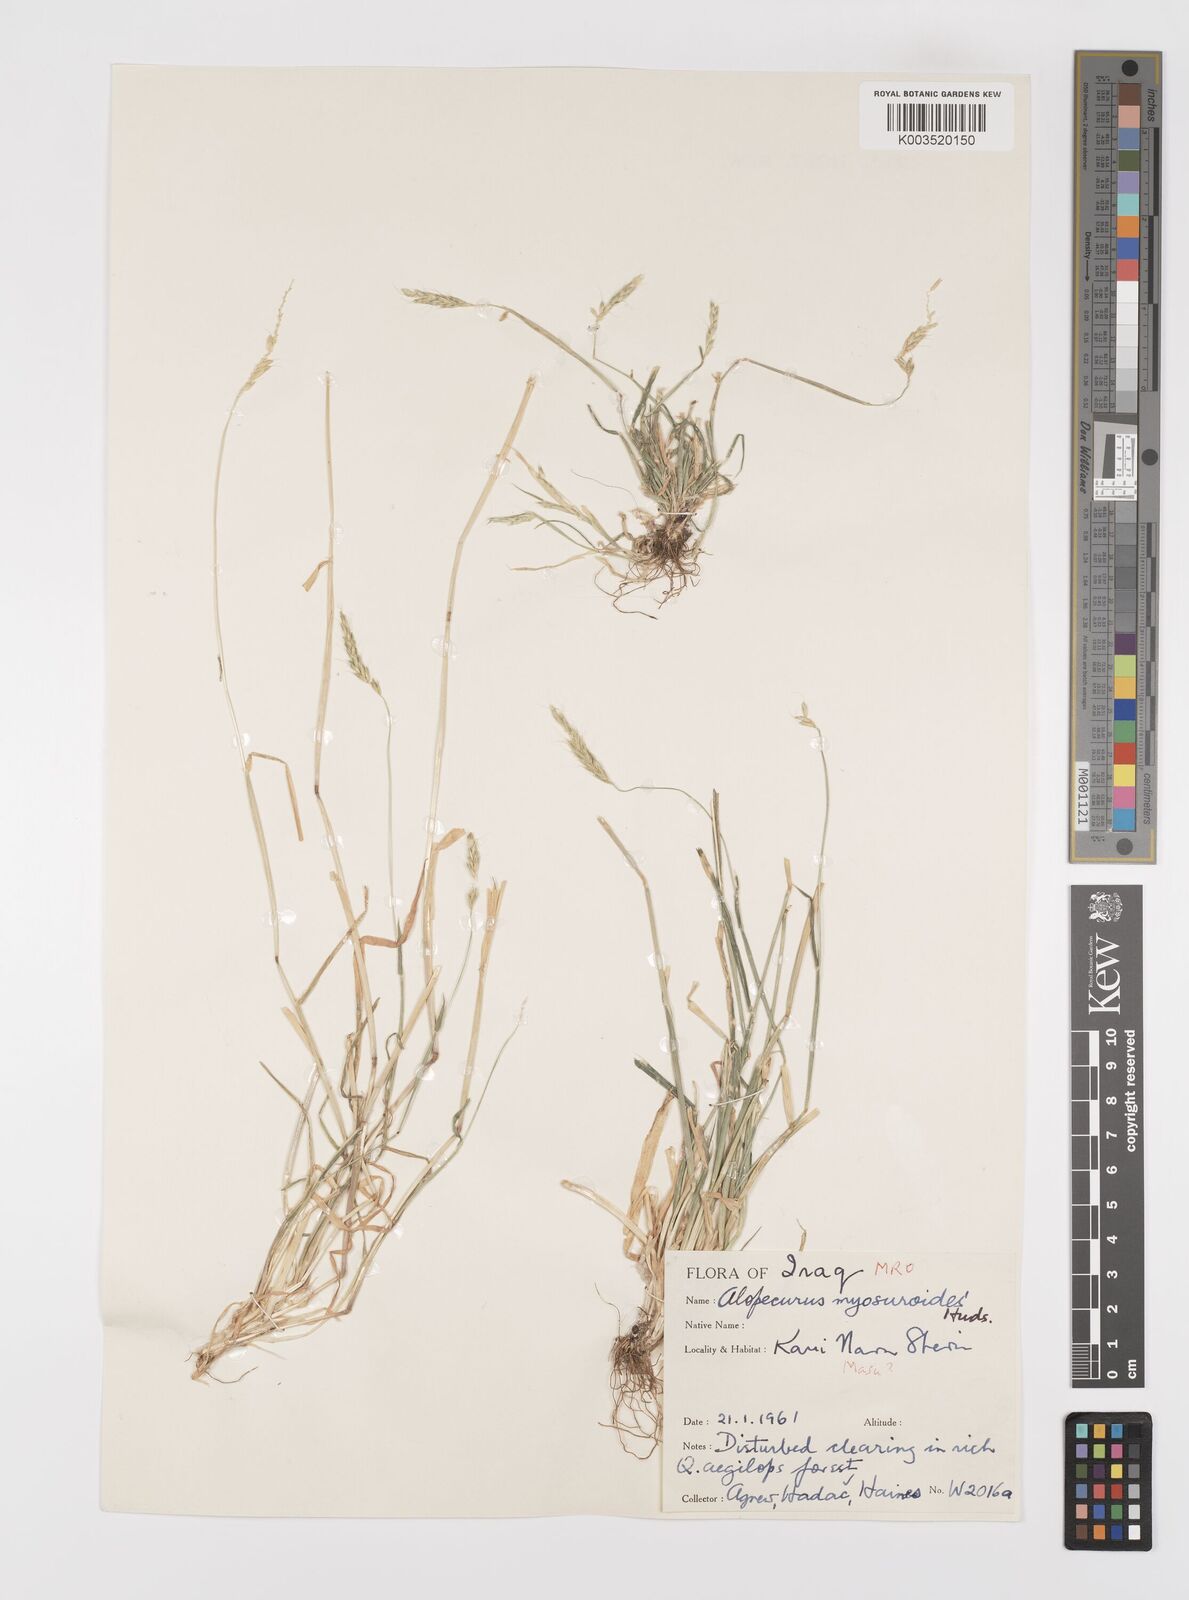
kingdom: Plantae
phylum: Tracheophyta
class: Liliopsida
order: Poales
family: Poaceae
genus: Alopecurus
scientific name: Alopecurus myosuroides
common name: Black-grass
